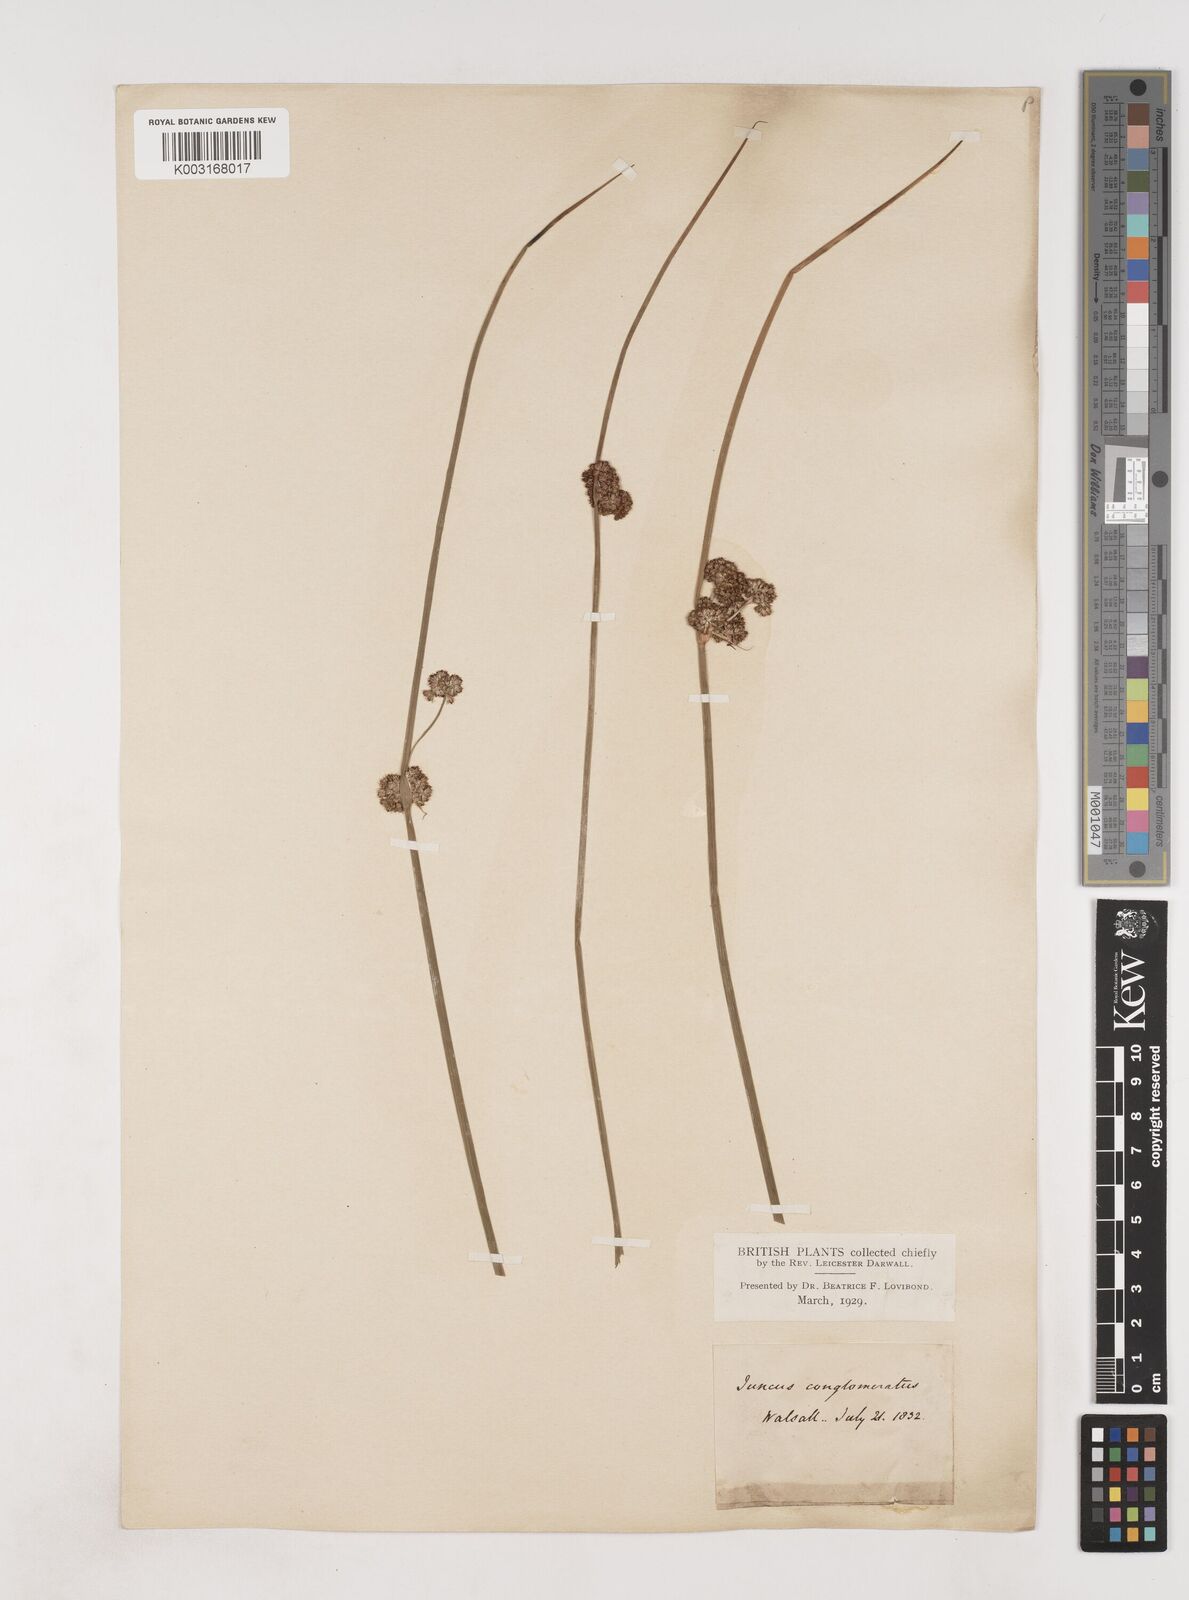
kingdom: Plantae
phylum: Tracheophyta
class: Liliopsida
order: Poales
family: Juncaceae
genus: Juncus
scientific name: Juncus conglomeratus
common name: Compact rush
